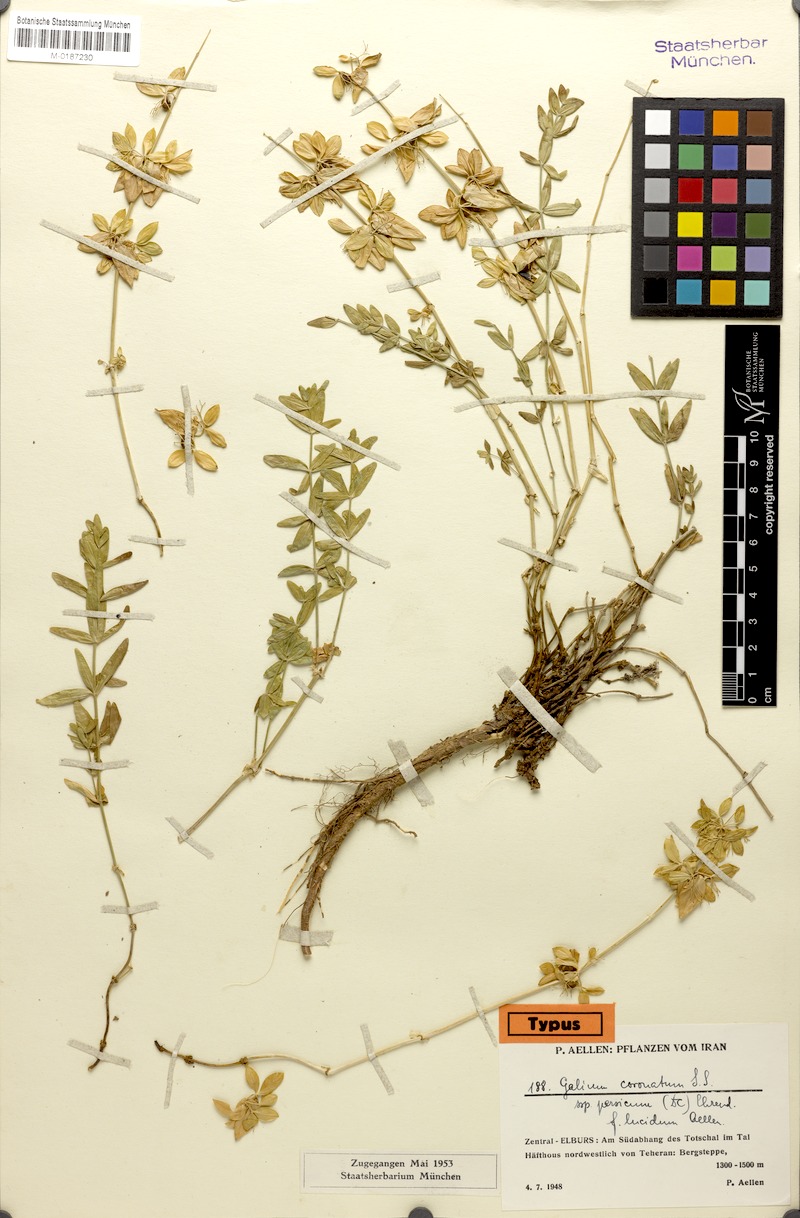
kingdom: Plantae
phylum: Tracheophyta
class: Magnoliopsida
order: Gentianales
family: Rubiaceae
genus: Cruciata
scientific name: Cruciata taurica
